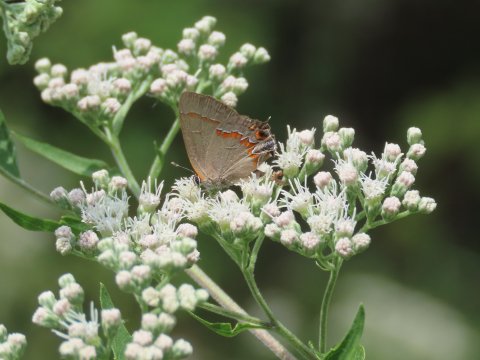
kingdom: Animalia
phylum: Arthropoda
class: Insecta
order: Lepidoptera
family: Lycaenidae
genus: Calycopis
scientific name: Calycopis cecrops
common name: Red-banded Hairstreak
